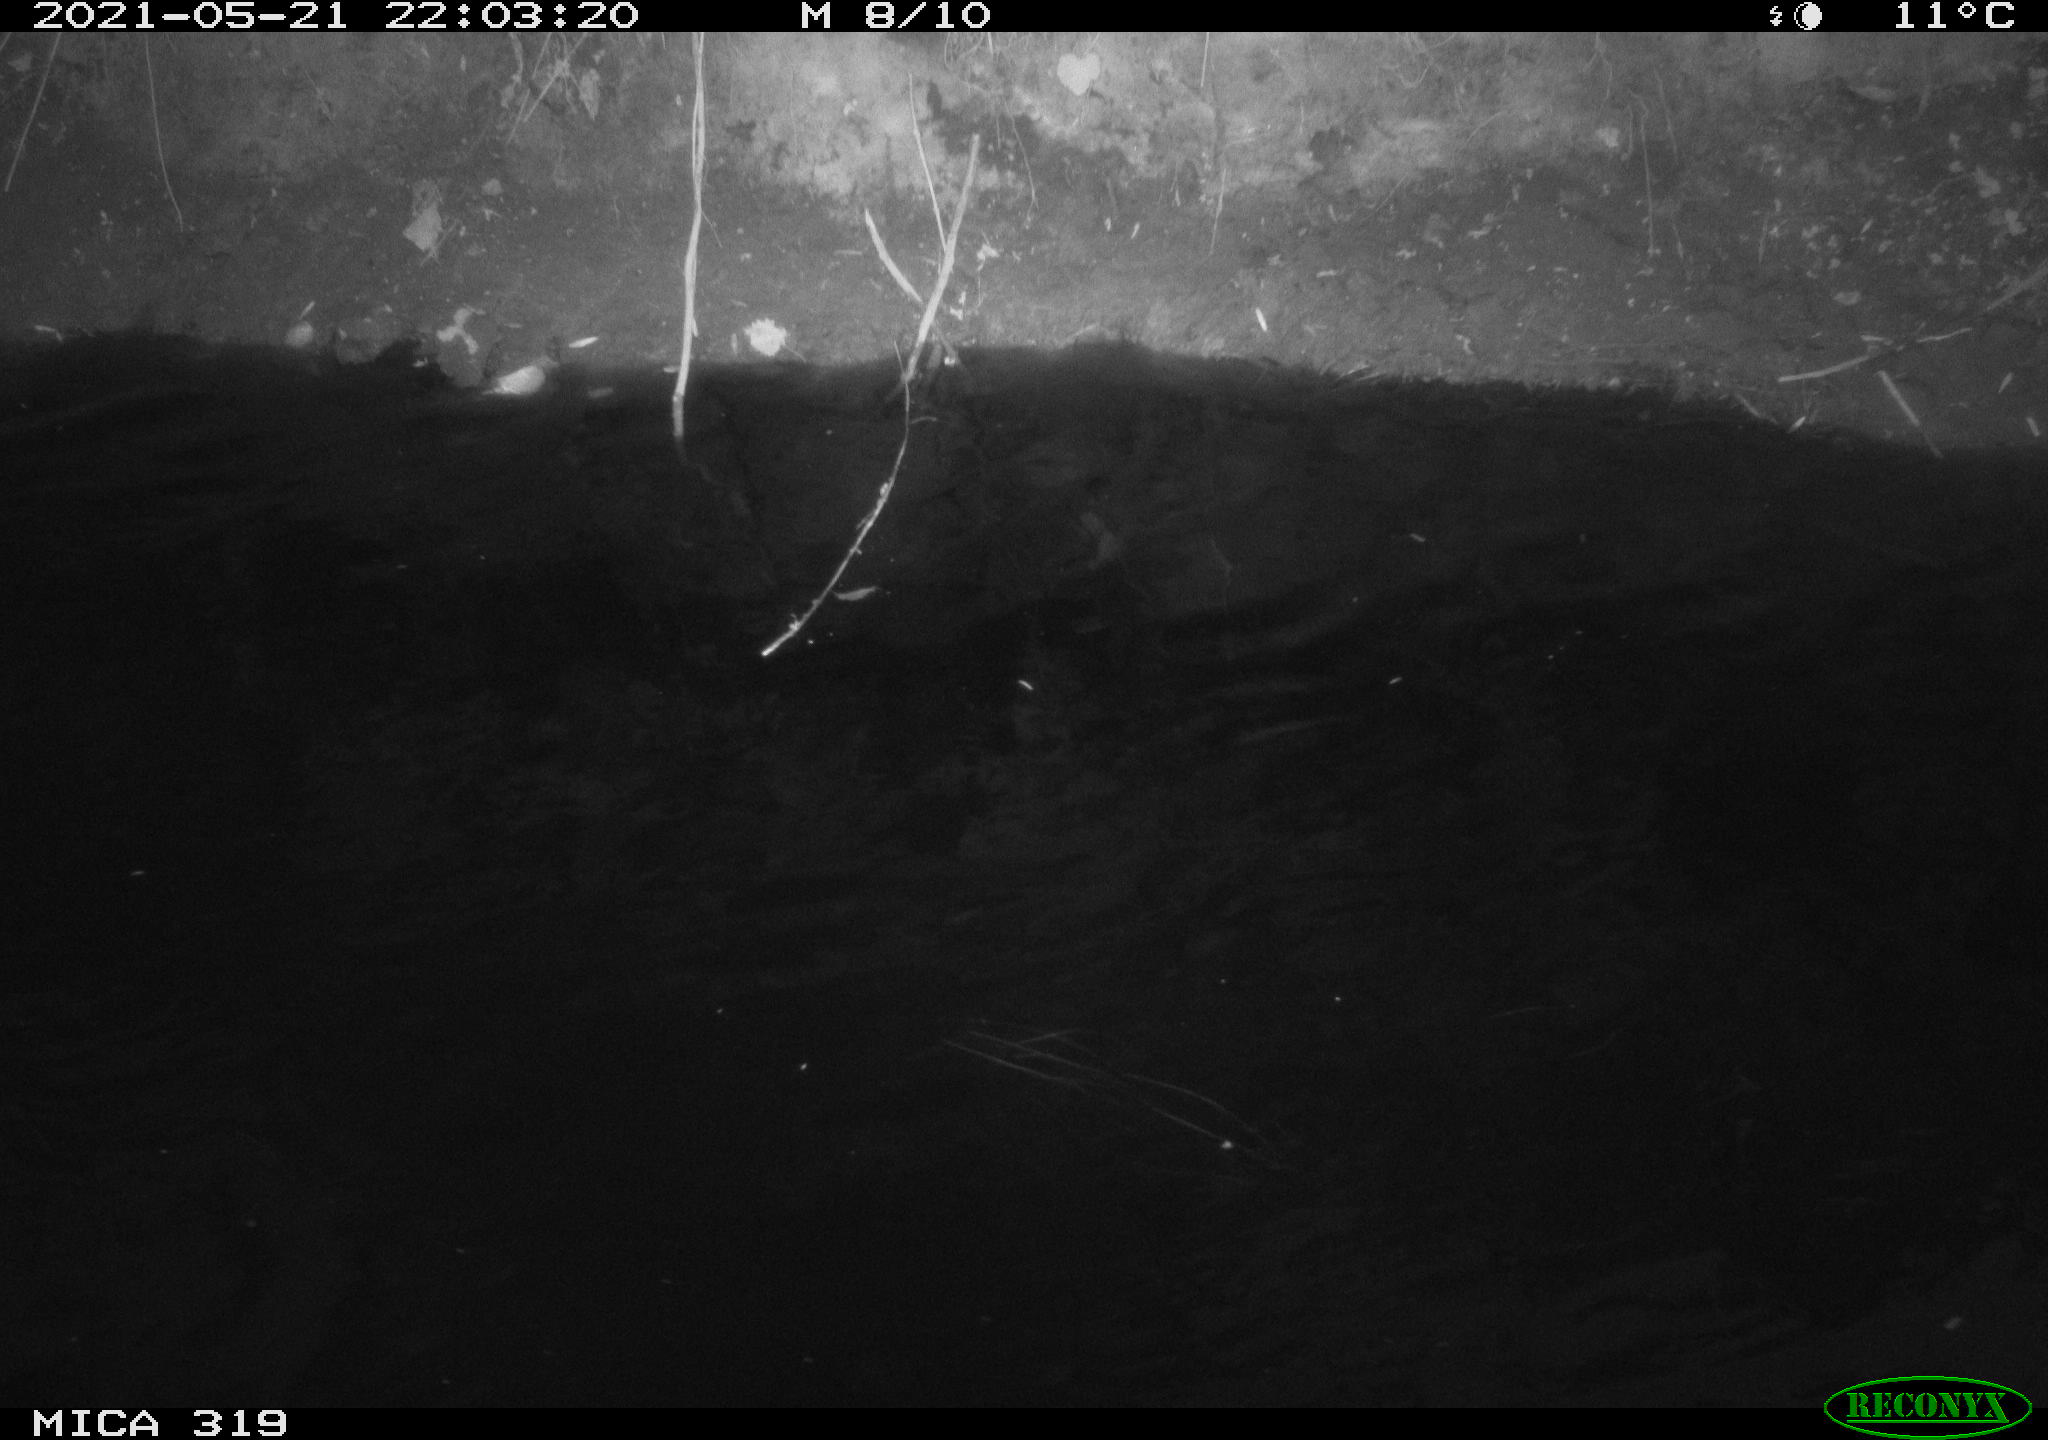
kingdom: Animalia
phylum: Chordata
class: Aves
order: Anseriformes
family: Anatidae
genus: Anas
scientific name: Anas platyrhynchos
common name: Mallard
